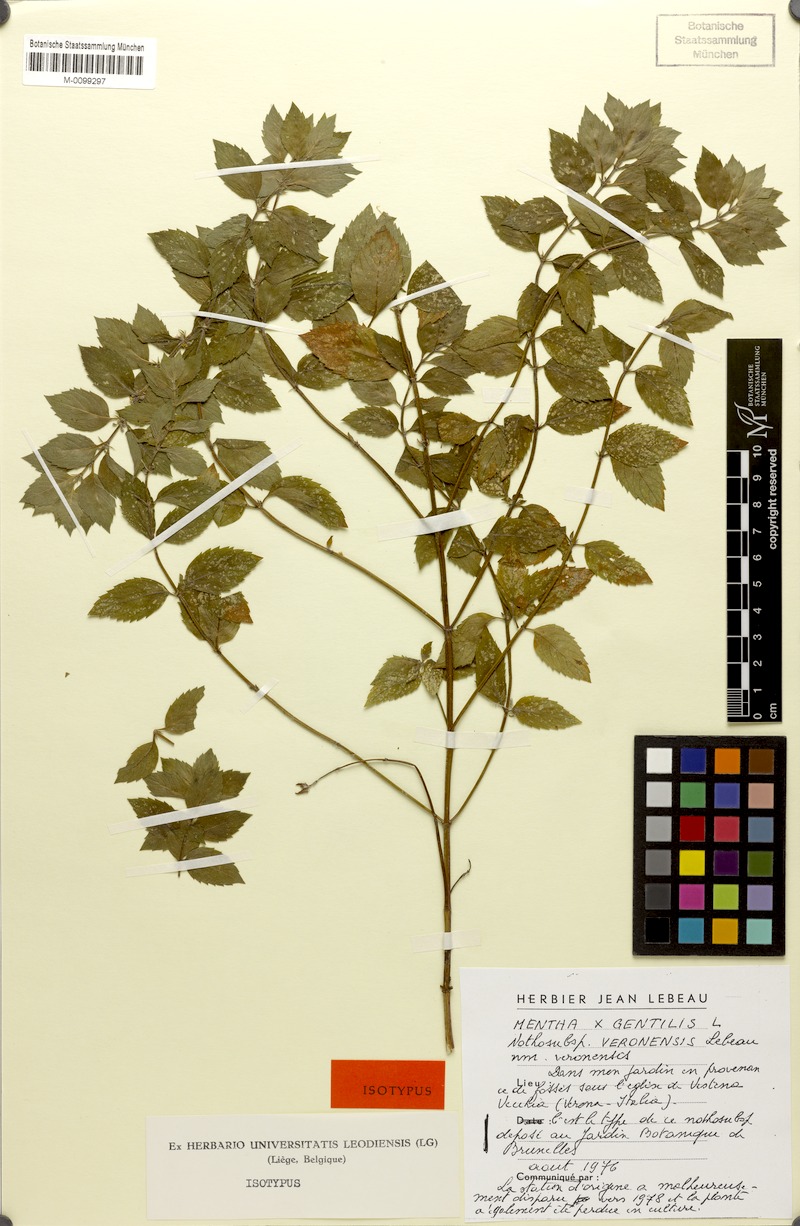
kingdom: Plantae
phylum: Tracheophyta
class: Magnoliopsida
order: Lamiales
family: Lamiaceae
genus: Mentha
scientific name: Mentha arvensis
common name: Corn mint
